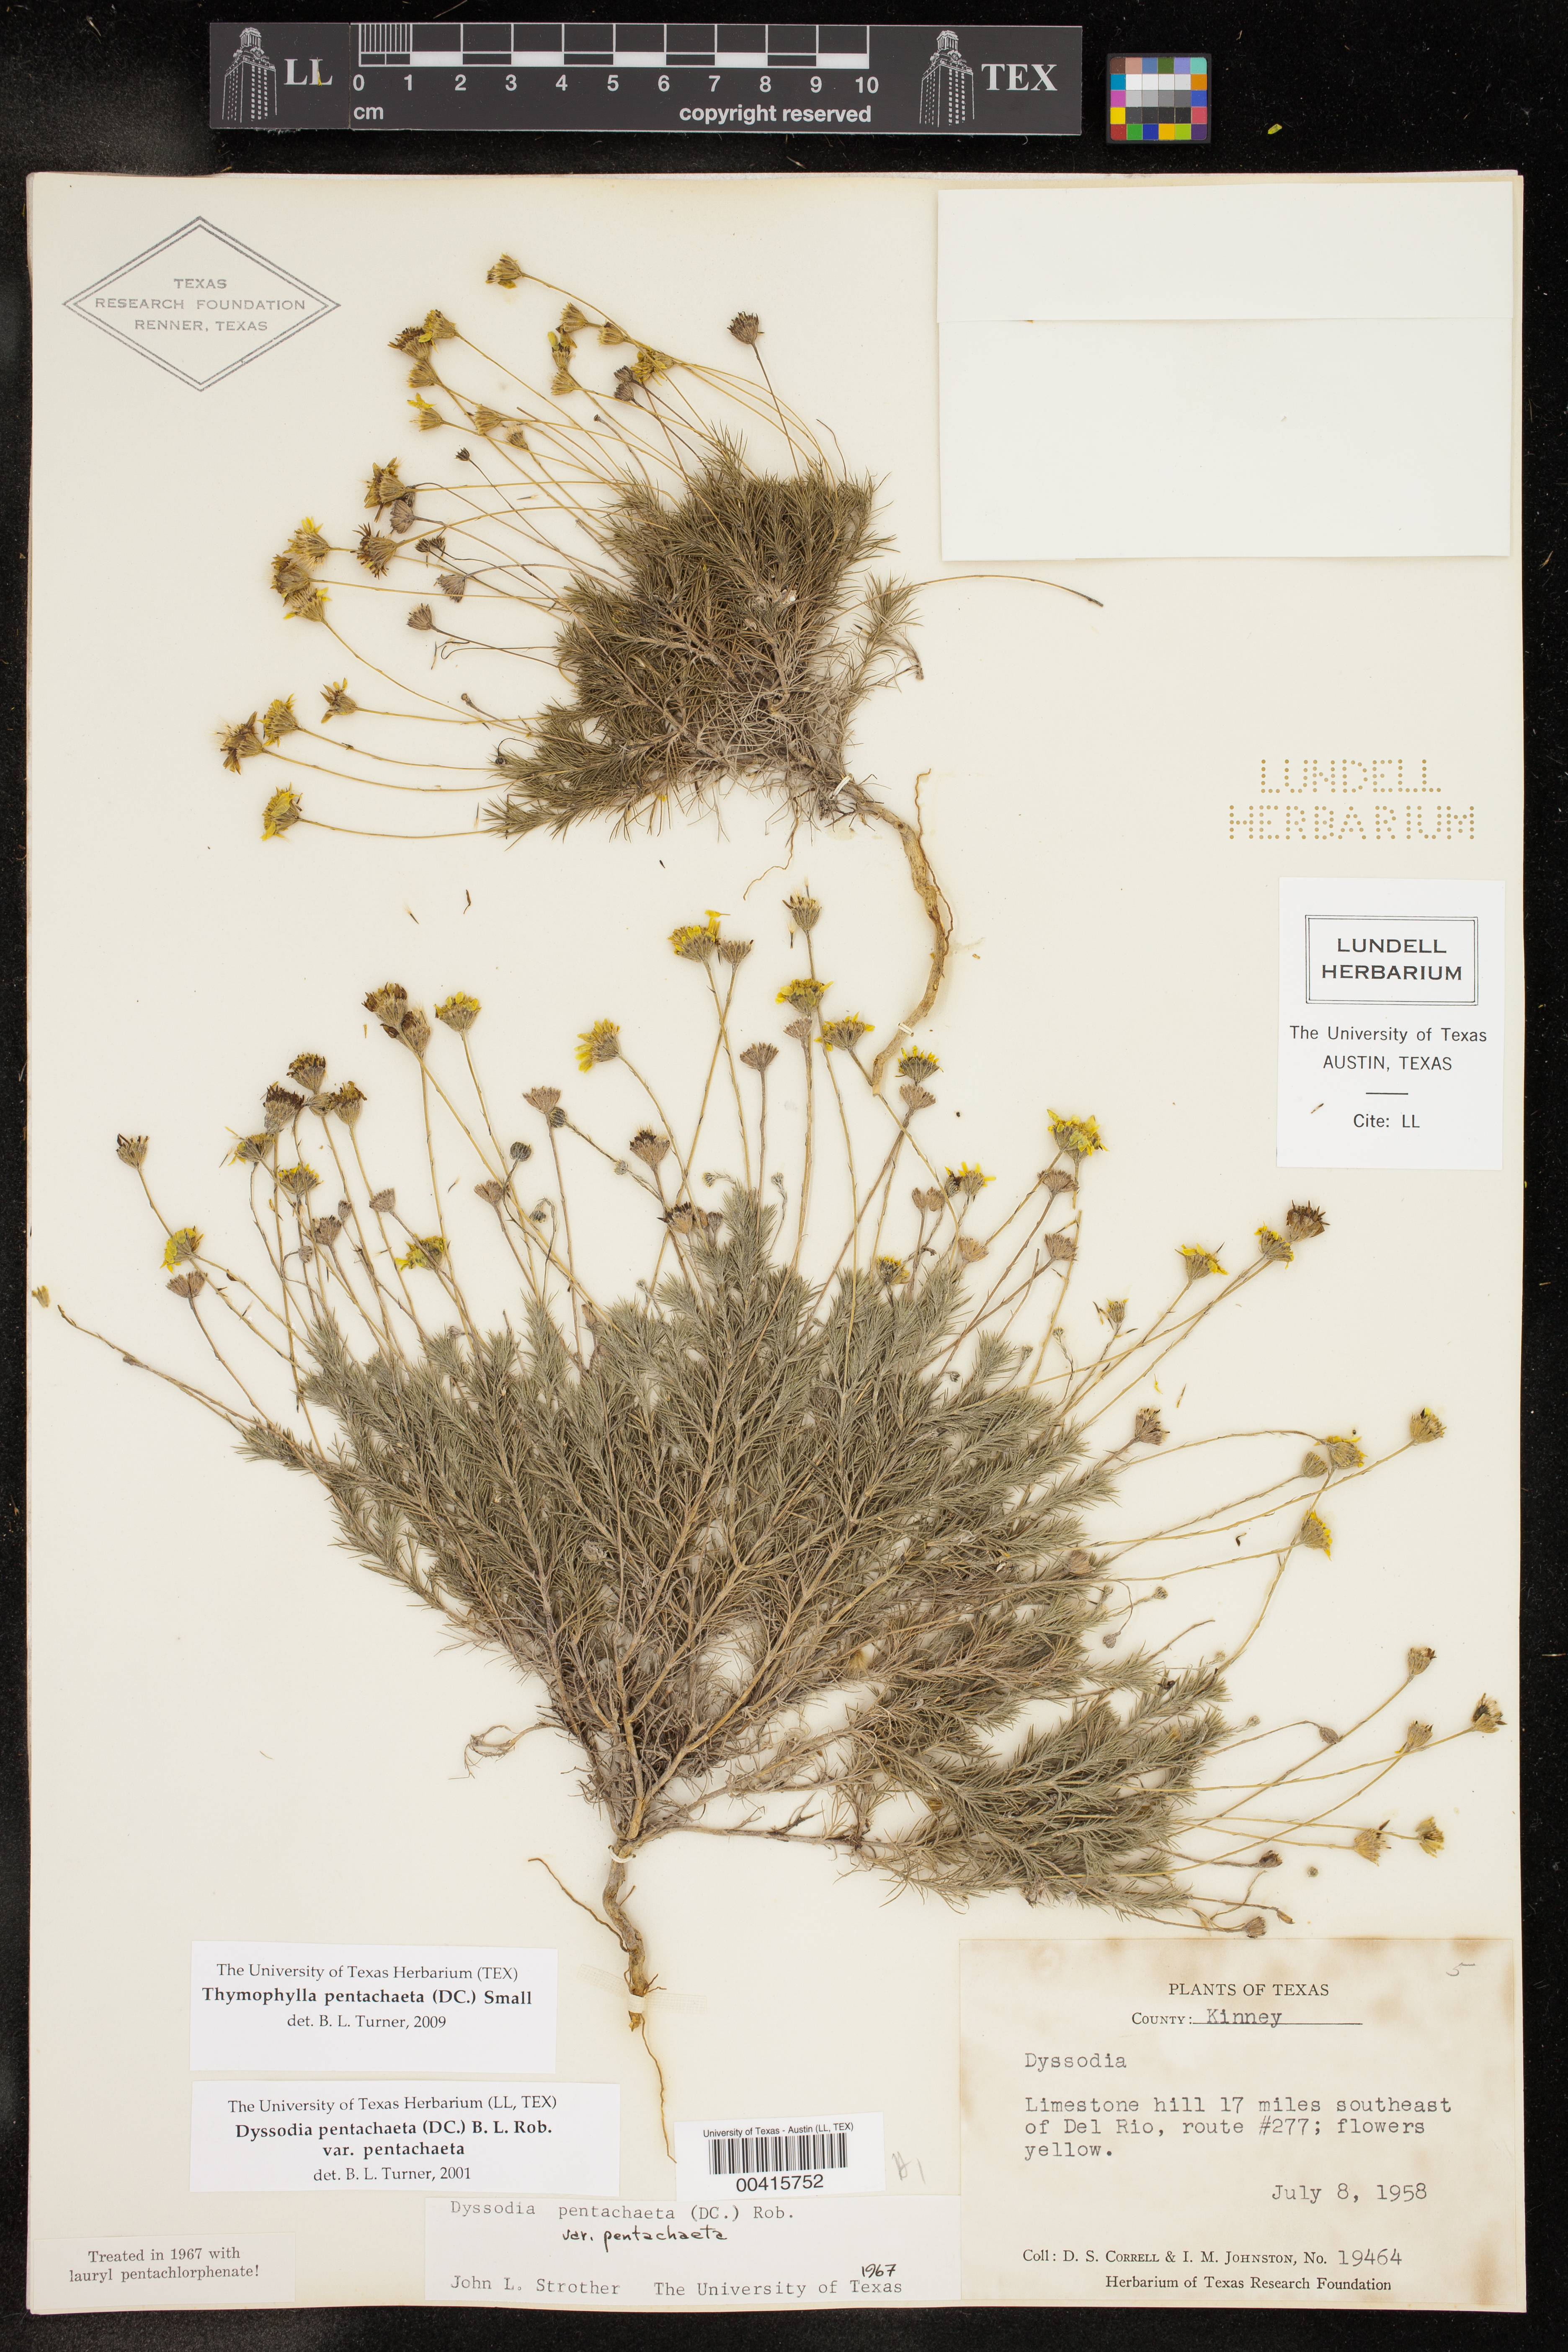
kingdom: Plantae
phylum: Tracheophyta
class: Magnoliopsida
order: Asterales
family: Asteraceae
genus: Thymophylla
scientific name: Thymophylla pentachaeta
